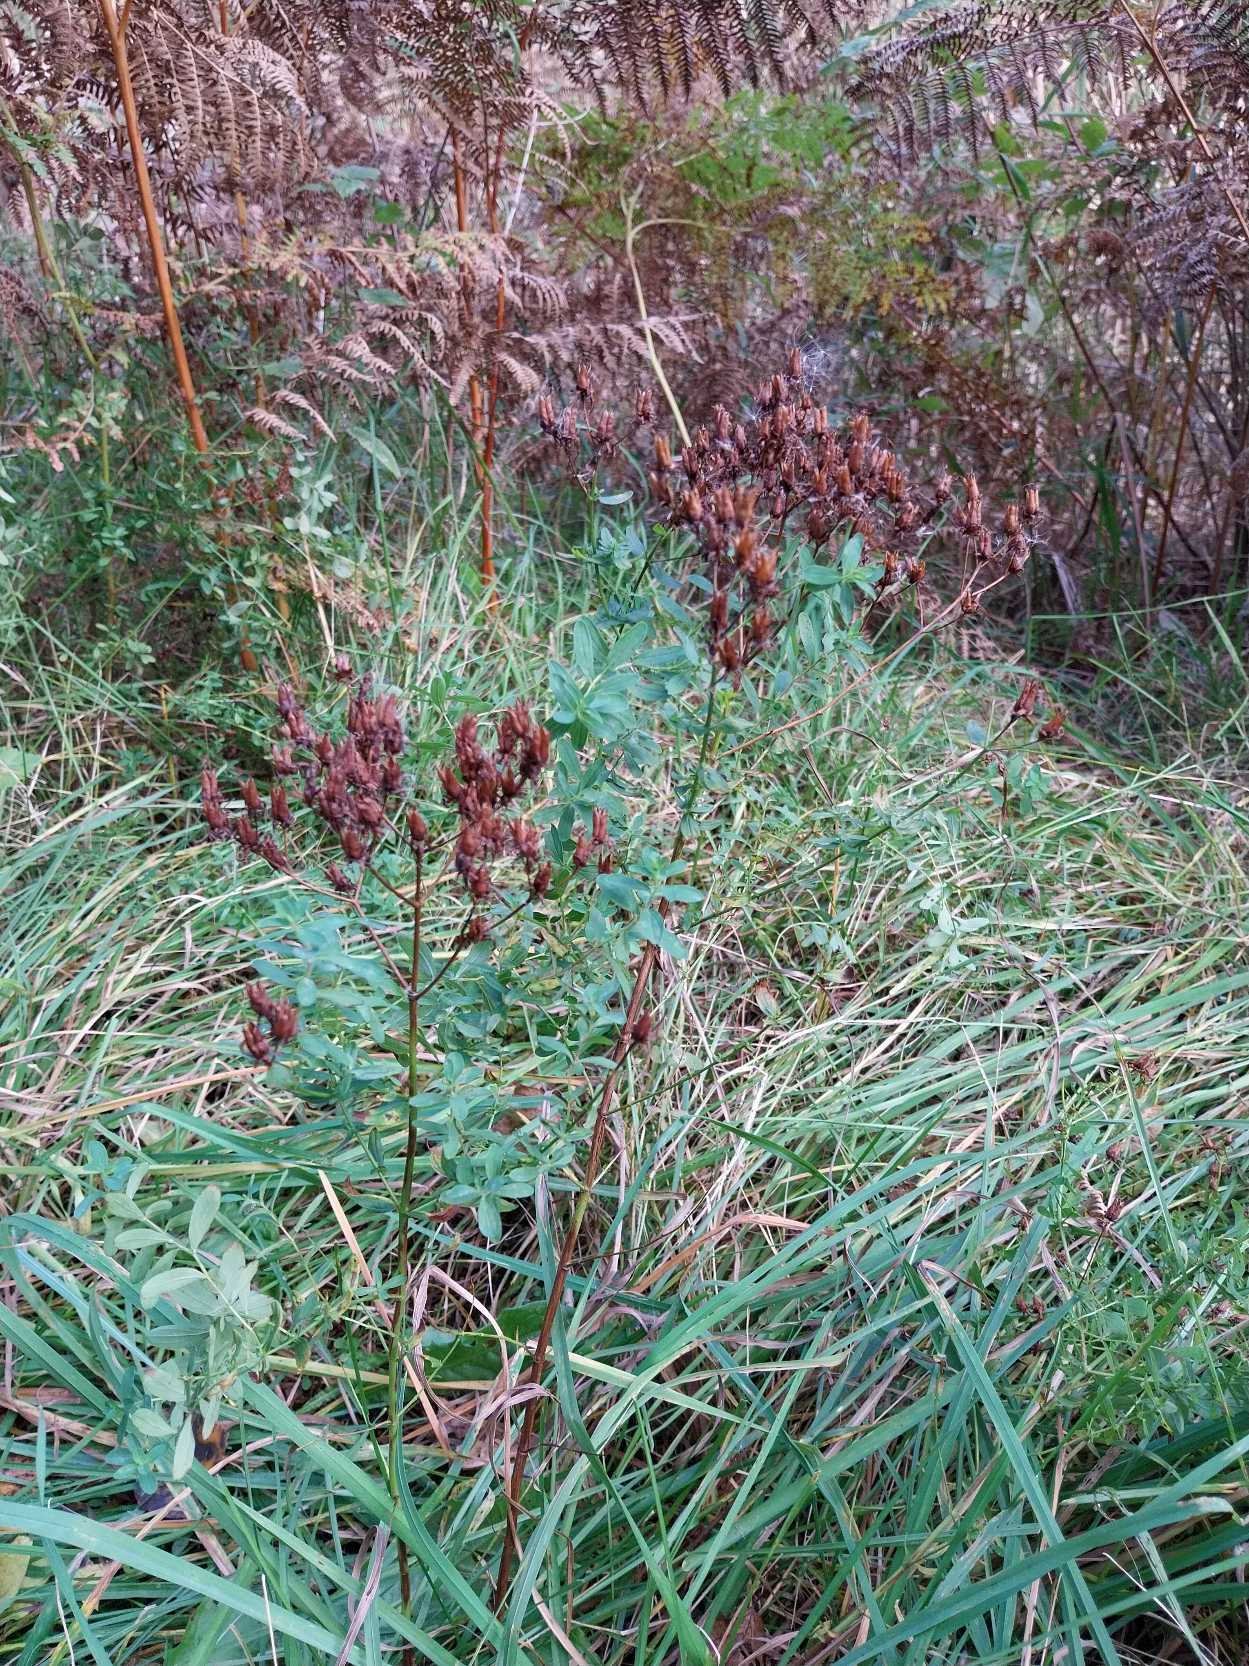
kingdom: Plantae
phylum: Tracheophyta
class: Magnoliopsida
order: Malpighiales
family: Hypericaceae
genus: Hypericum
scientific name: Hypericum perforatum
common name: Prikbladet perikon
